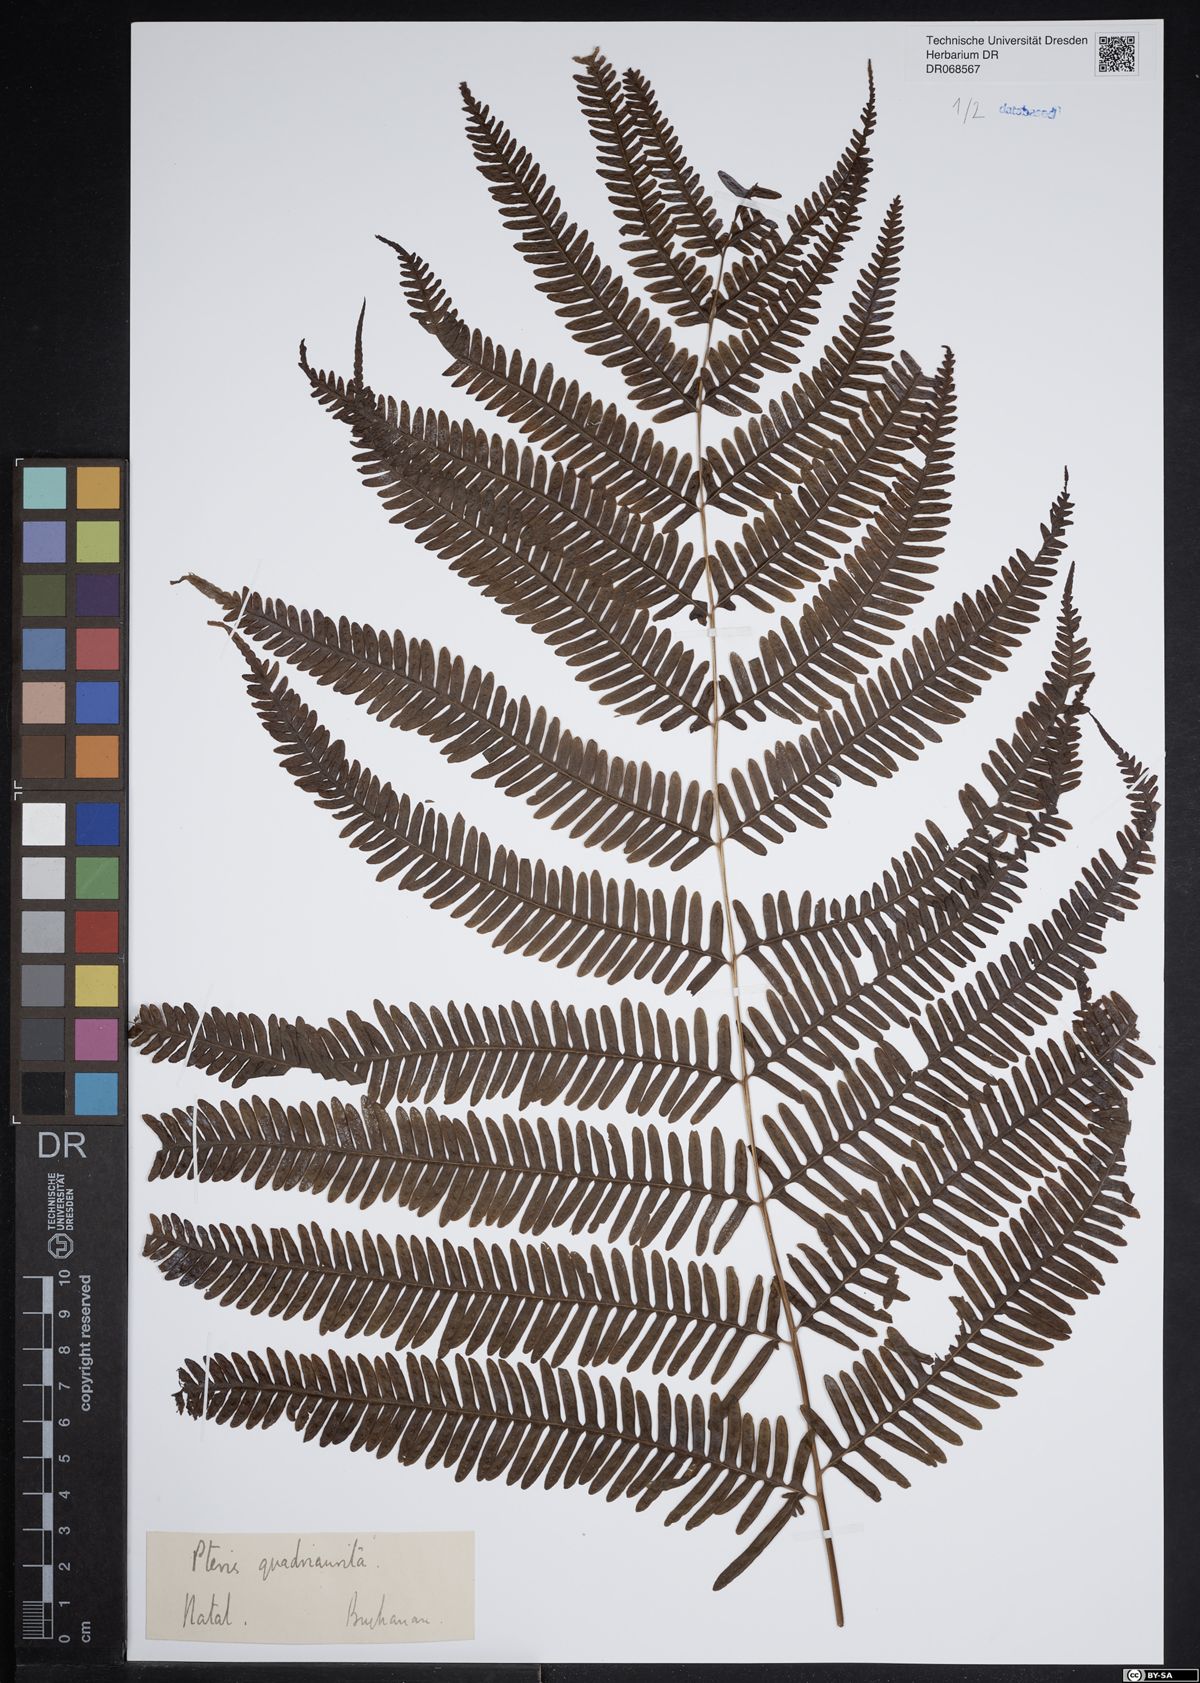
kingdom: Plantae
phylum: Tracheophyta
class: Polypodiopsida
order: Polypodiales
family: Pteridaceae
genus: Pteris
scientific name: Pteris quadriaurita
